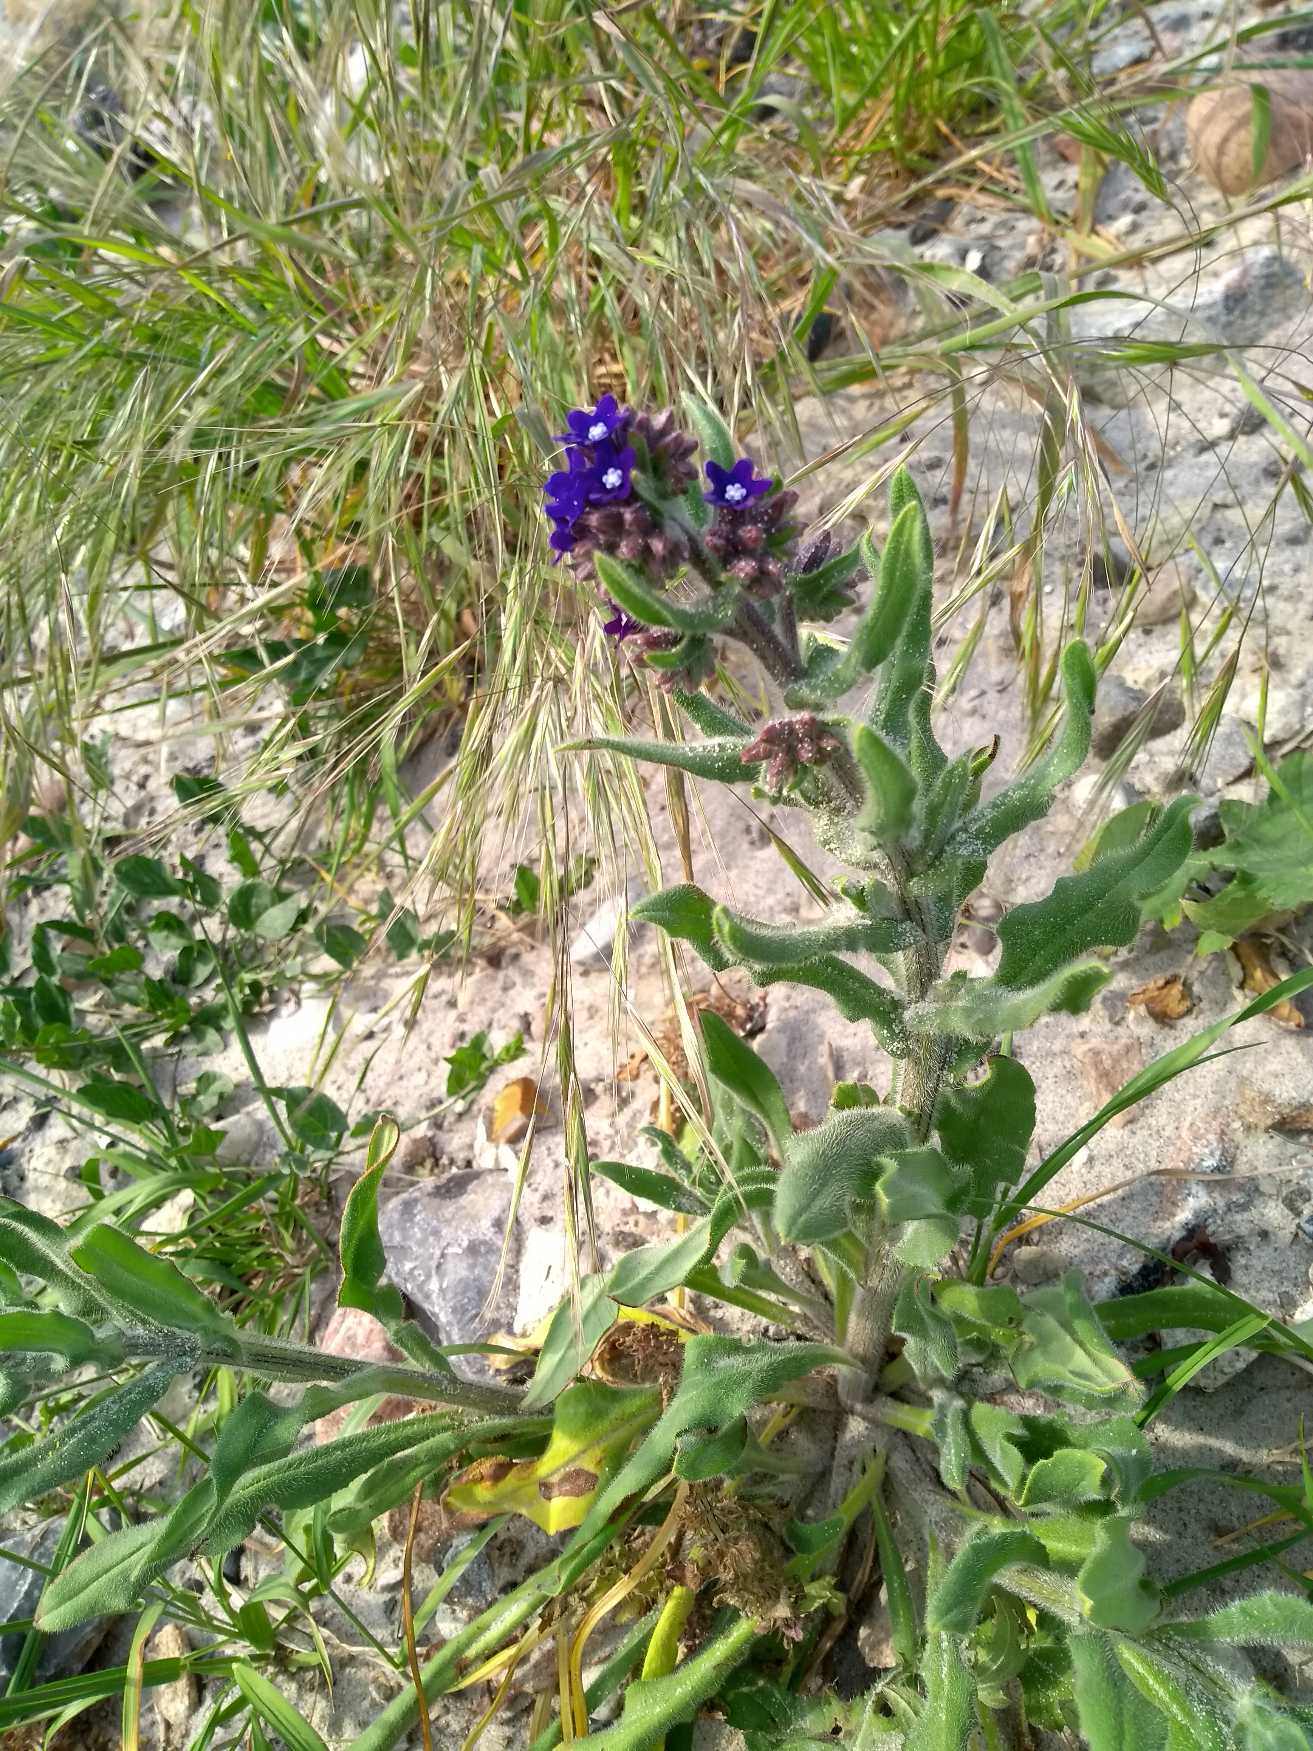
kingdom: Plantae
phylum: Tracheophyta
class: Magnoliopsida
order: Boraginales
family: Boraginaceae
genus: Anchusa
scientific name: Anchusa officinalis
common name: Læge-oksetunge
